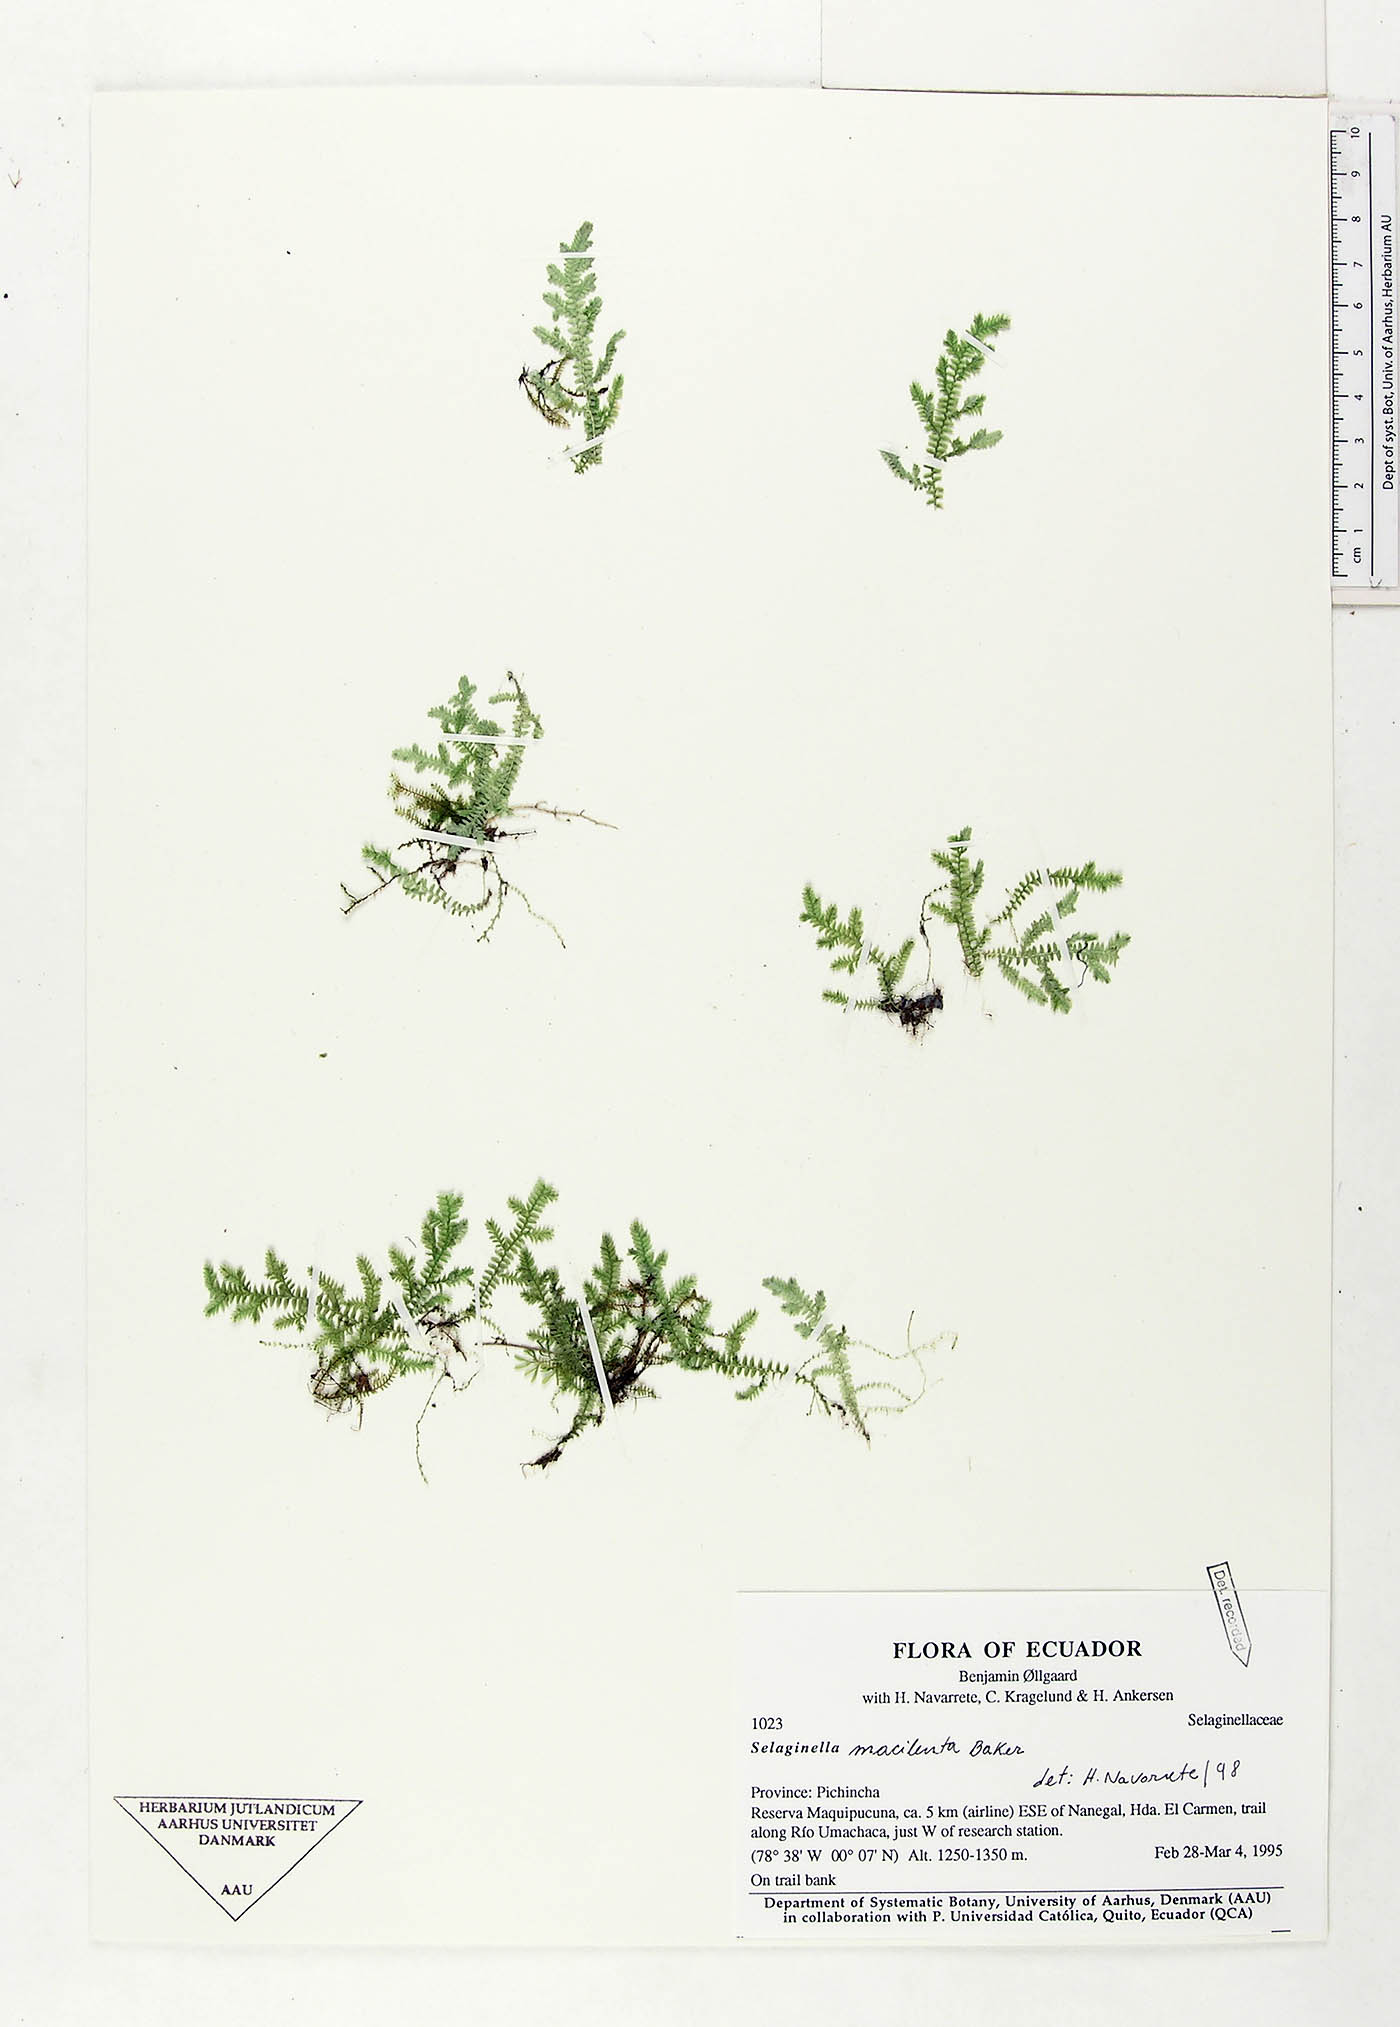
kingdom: Plantae
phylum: Tracheophyta
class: Lycopodiopsida
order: Selaginellales
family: Selaginellaceae
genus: Selaginella
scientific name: Selaginella macilenta
